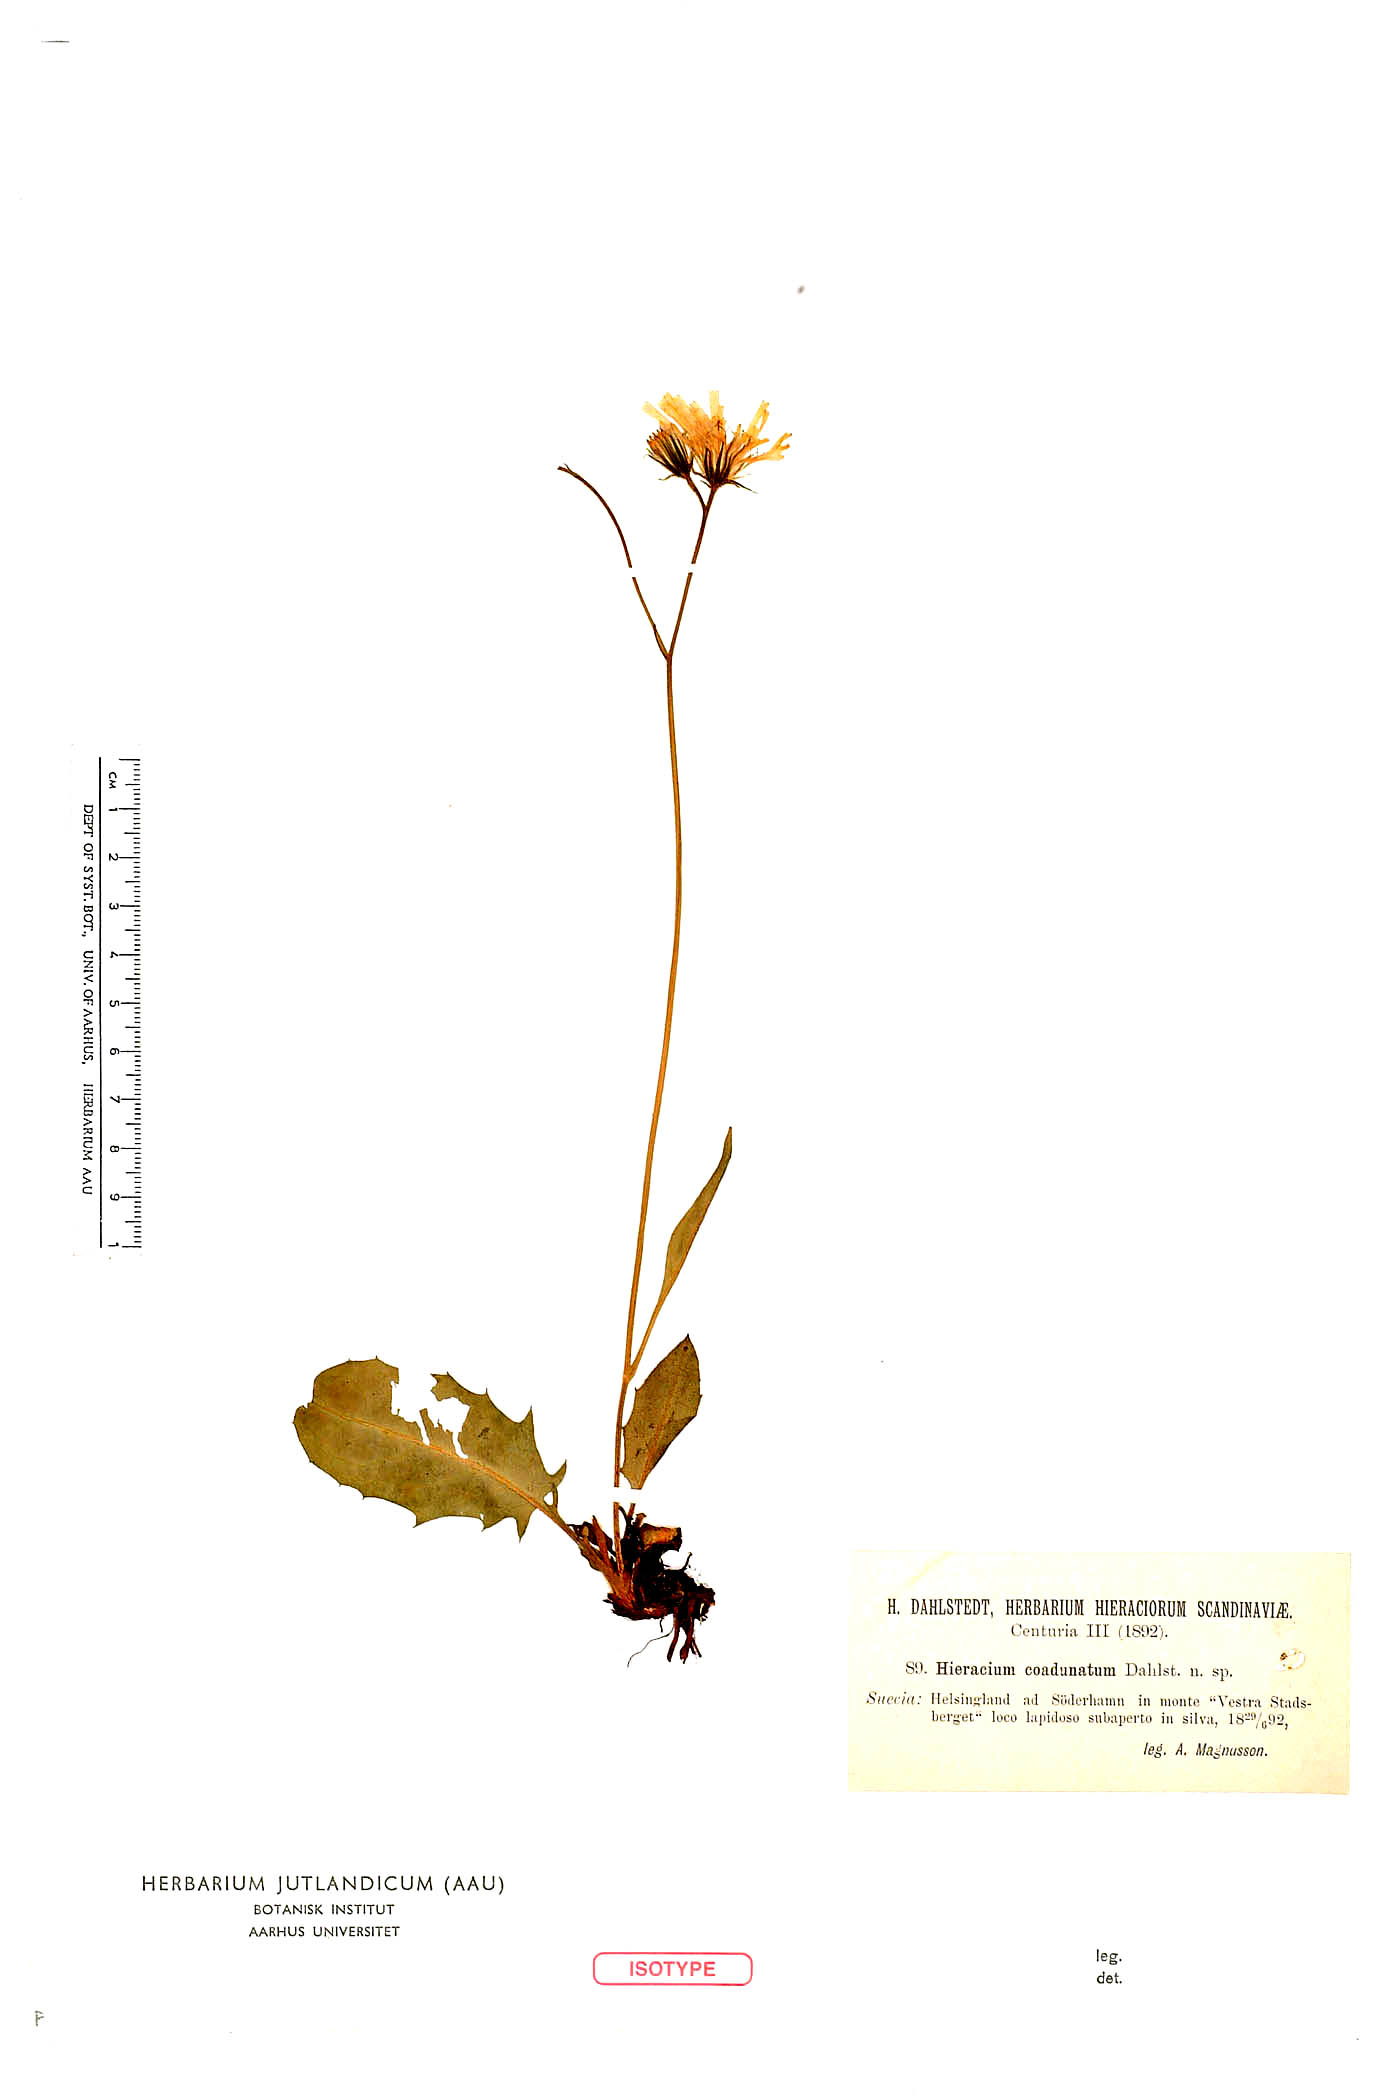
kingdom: Plantae
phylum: Tracheophyta
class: Magnoliopsida
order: Asterales
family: Asteraceae
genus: Hieracium
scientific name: Hieracium coadunatum
